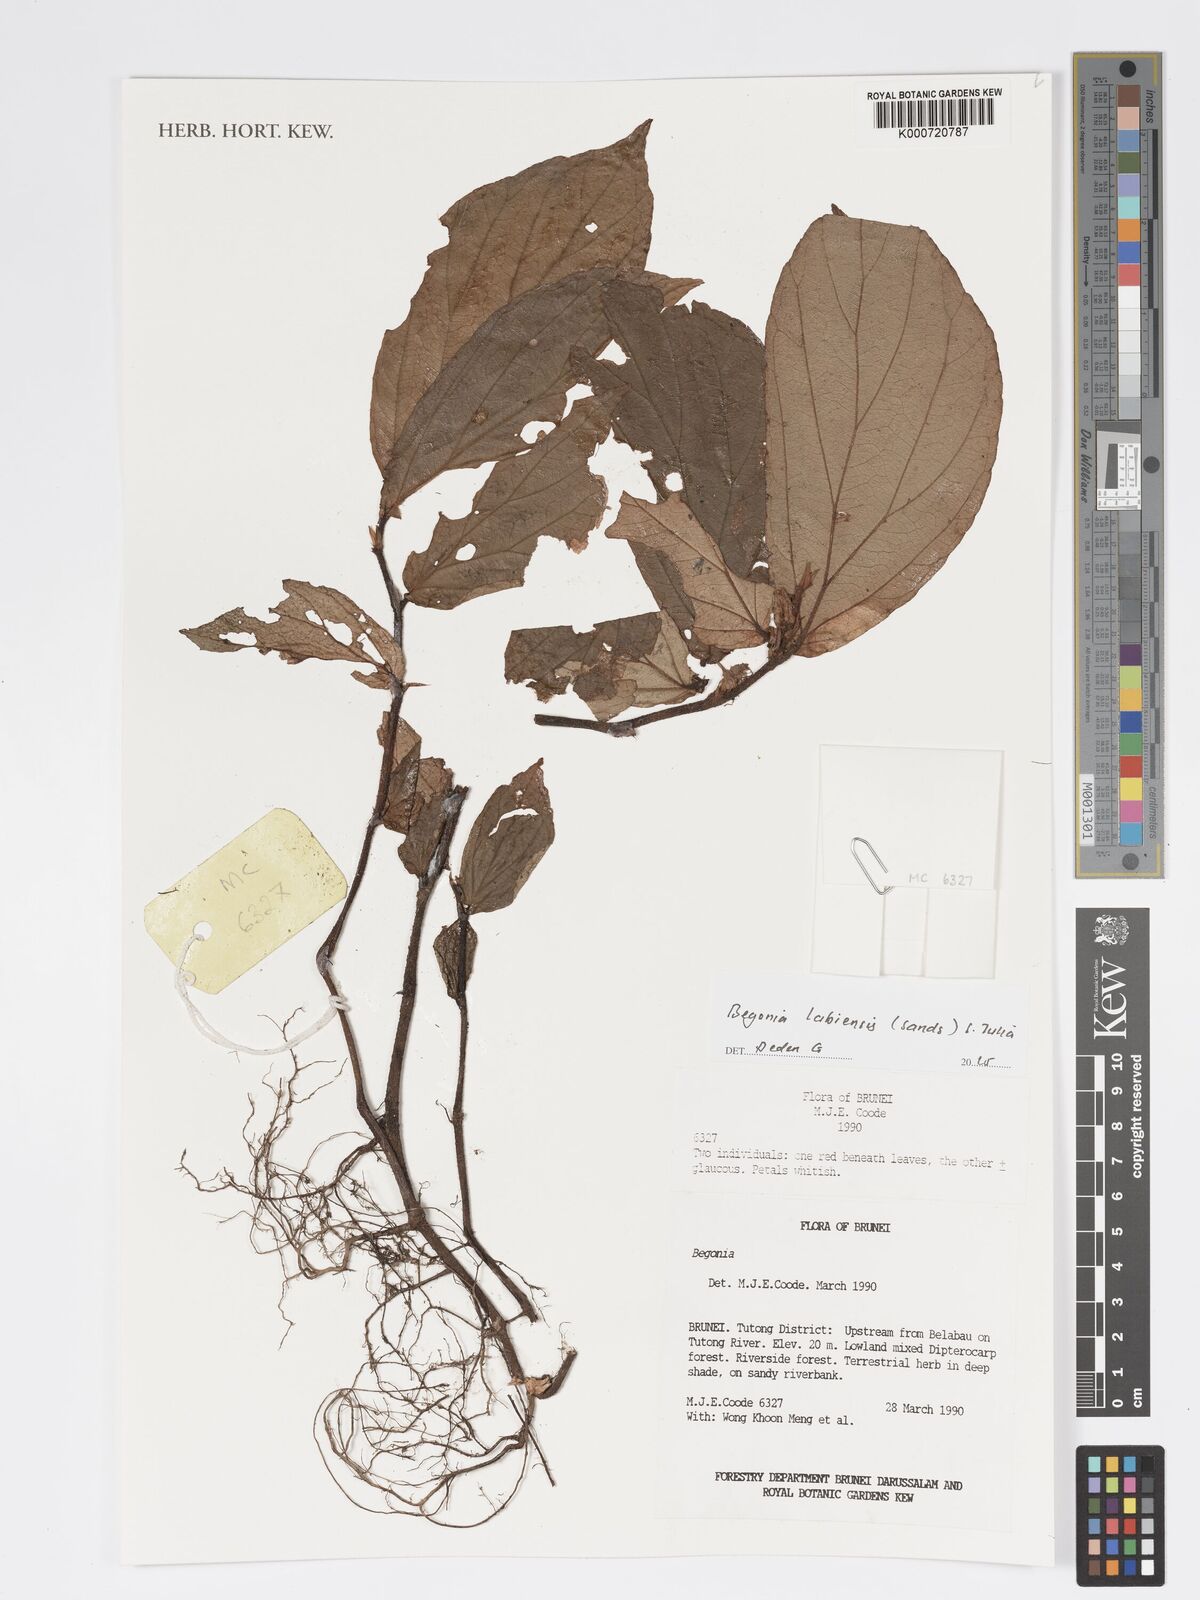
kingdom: Plantae
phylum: Tracheophyta
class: Magnoliopsida
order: Cucurbitales
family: Begoniaceae
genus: Begonia
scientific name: Begonia labiensis
